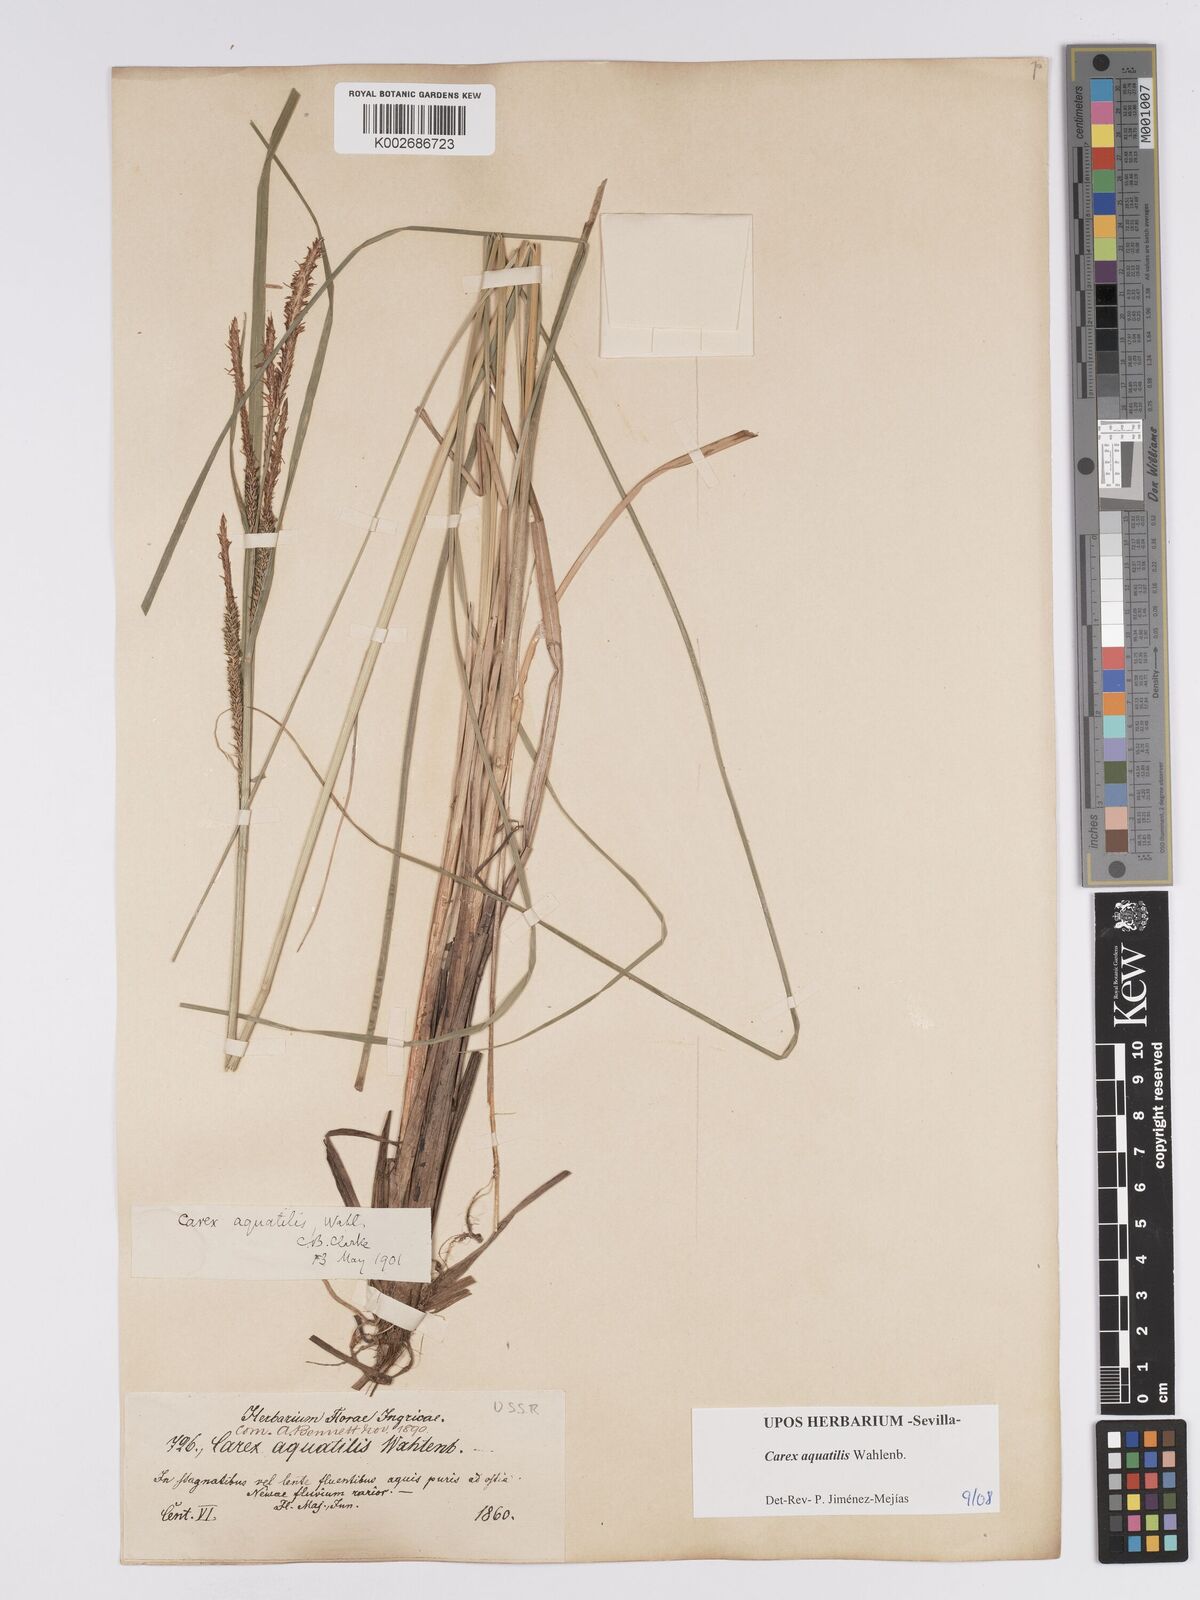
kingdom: Plantae
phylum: Tracheophyta
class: Liliopsida
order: Poales
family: Cyperaceae
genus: Carex
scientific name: Carex aquatilis
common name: Water sedge
